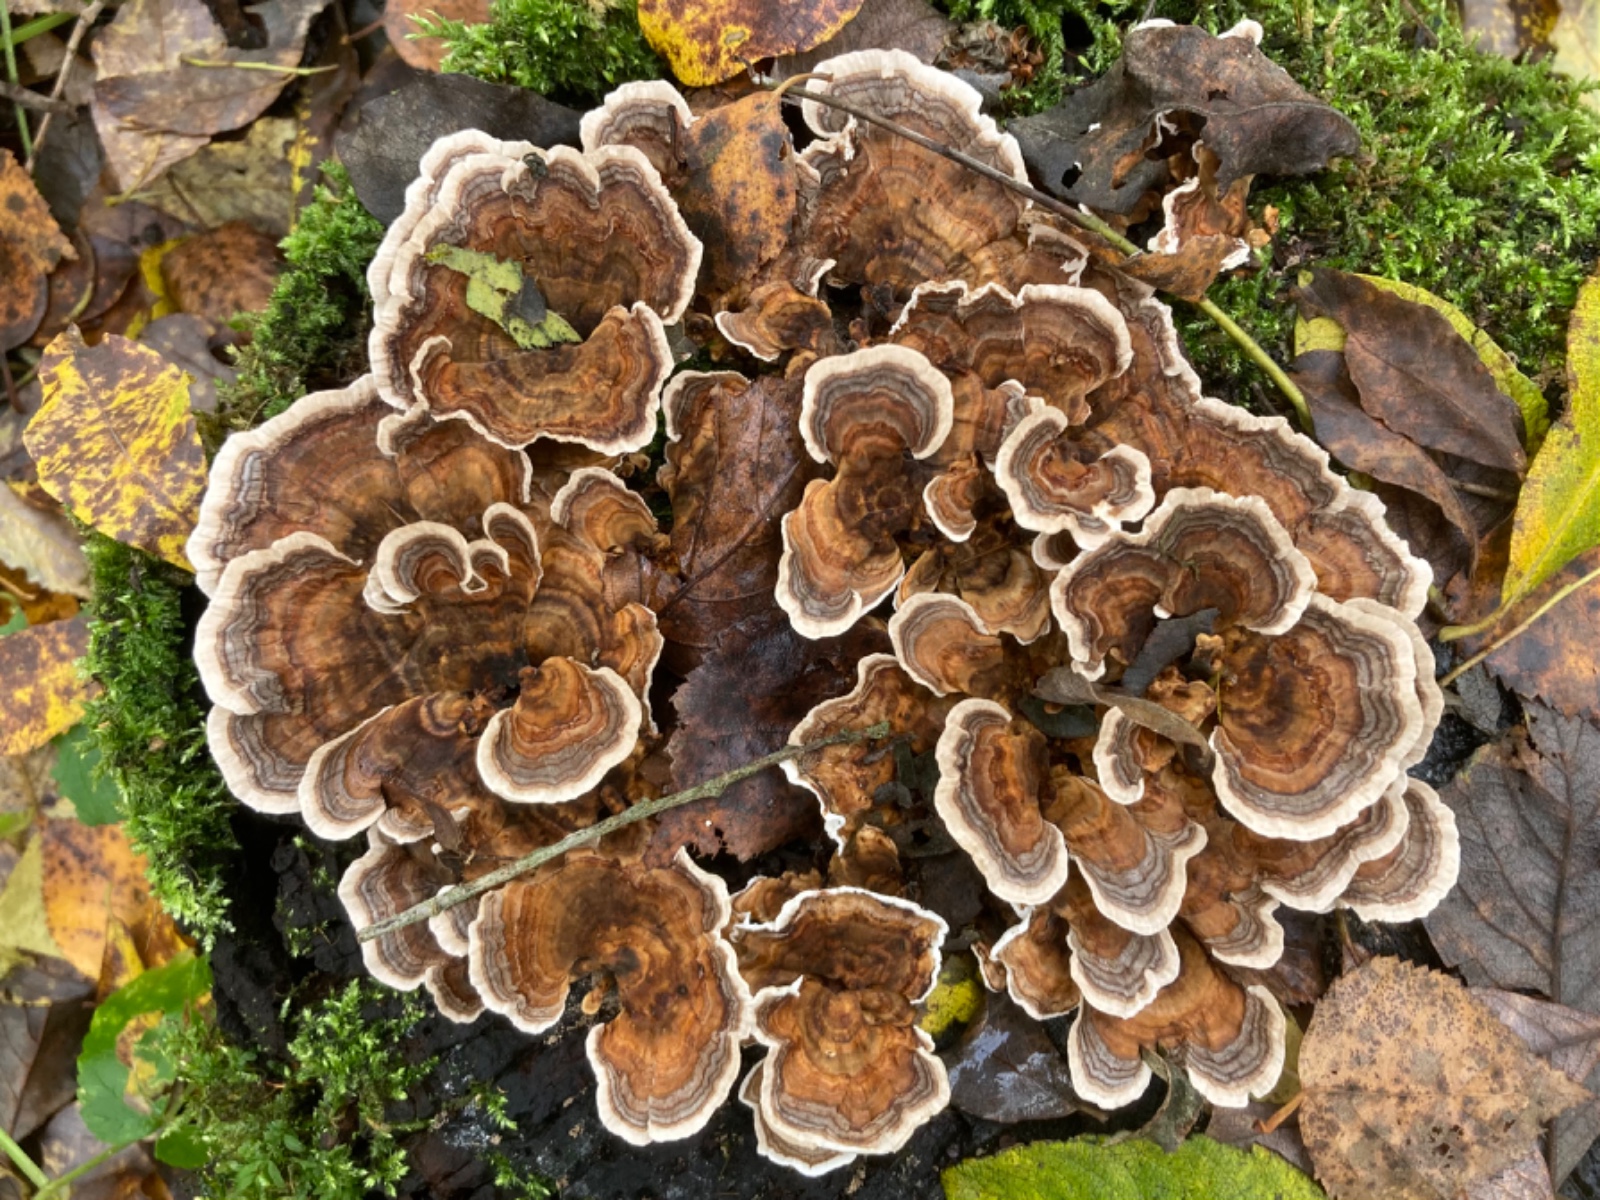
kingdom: Fungi
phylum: Basidiomycota
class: Agaricomycetes
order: Polyporales
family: Polyporaceae
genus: Trametes
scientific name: Trametes versicolor
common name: broget læderporesvamp
